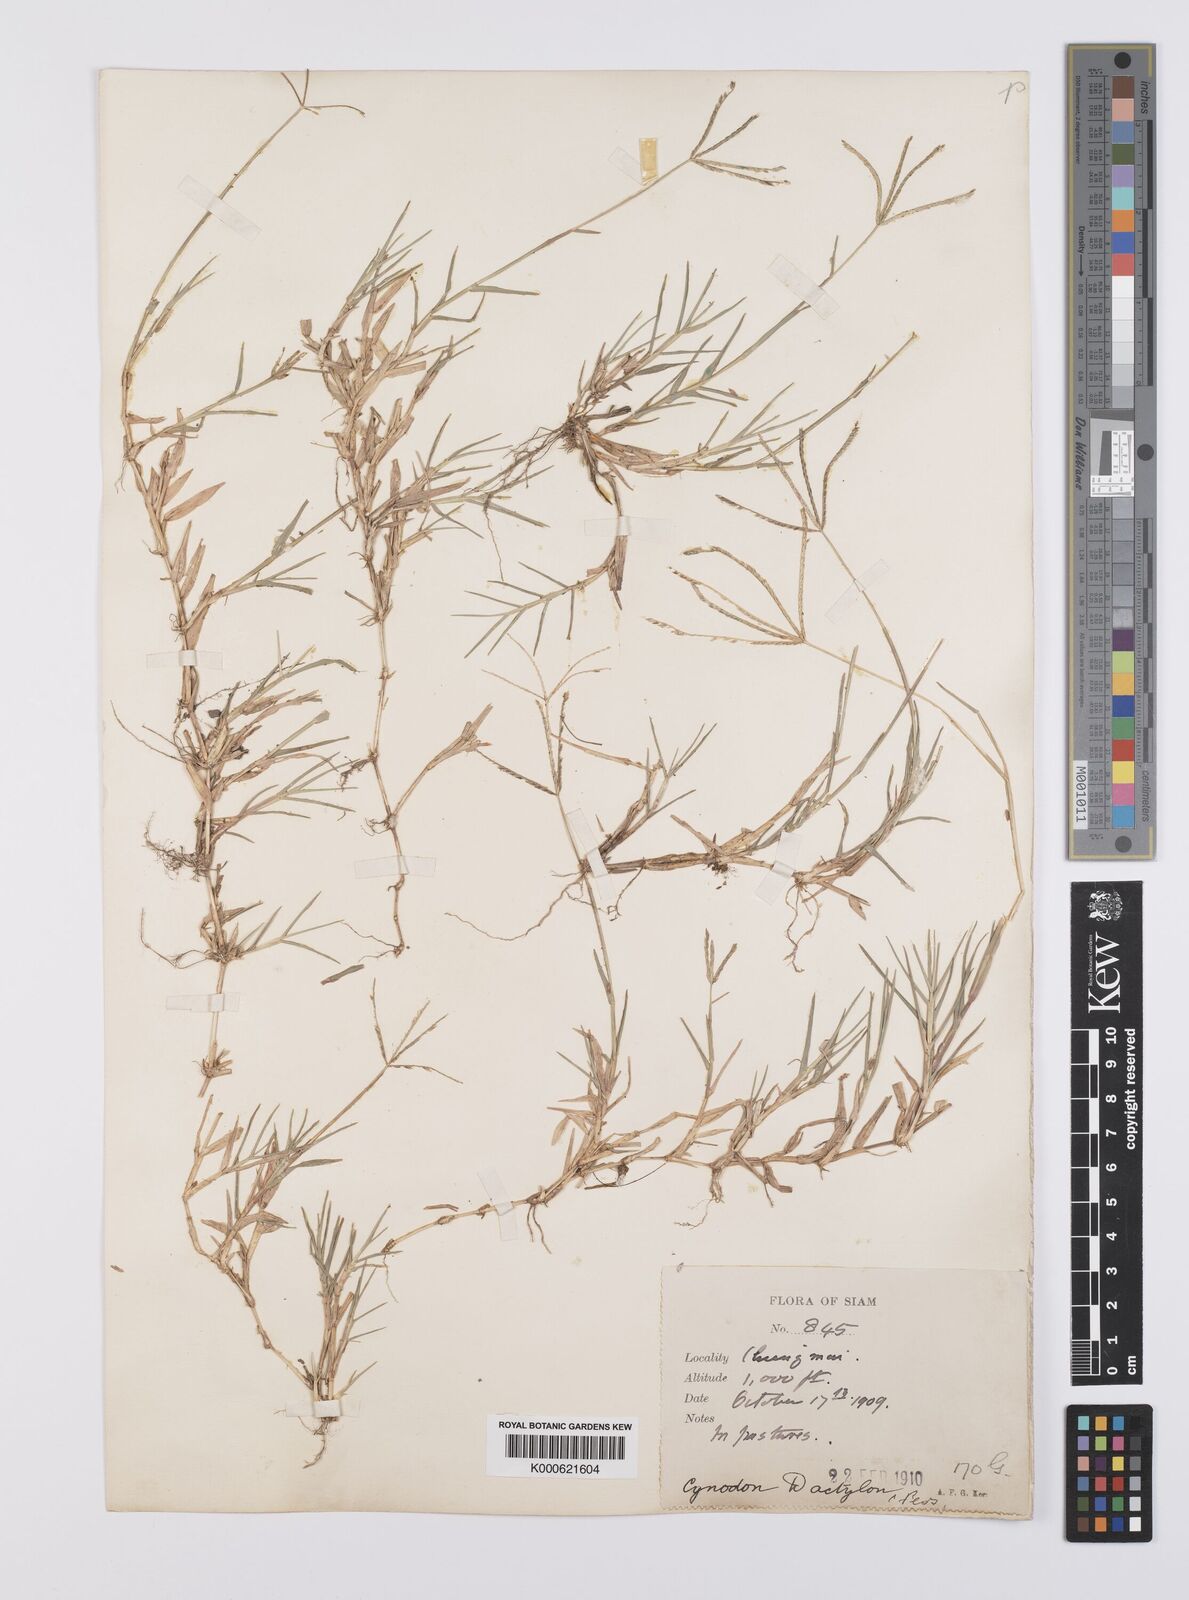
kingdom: Plantae
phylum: Tracheophyta
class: Liliopsida
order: Poales
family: Poaceae
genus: Cynodon
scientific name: Cynodon dactylon
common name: Bermuda grass
